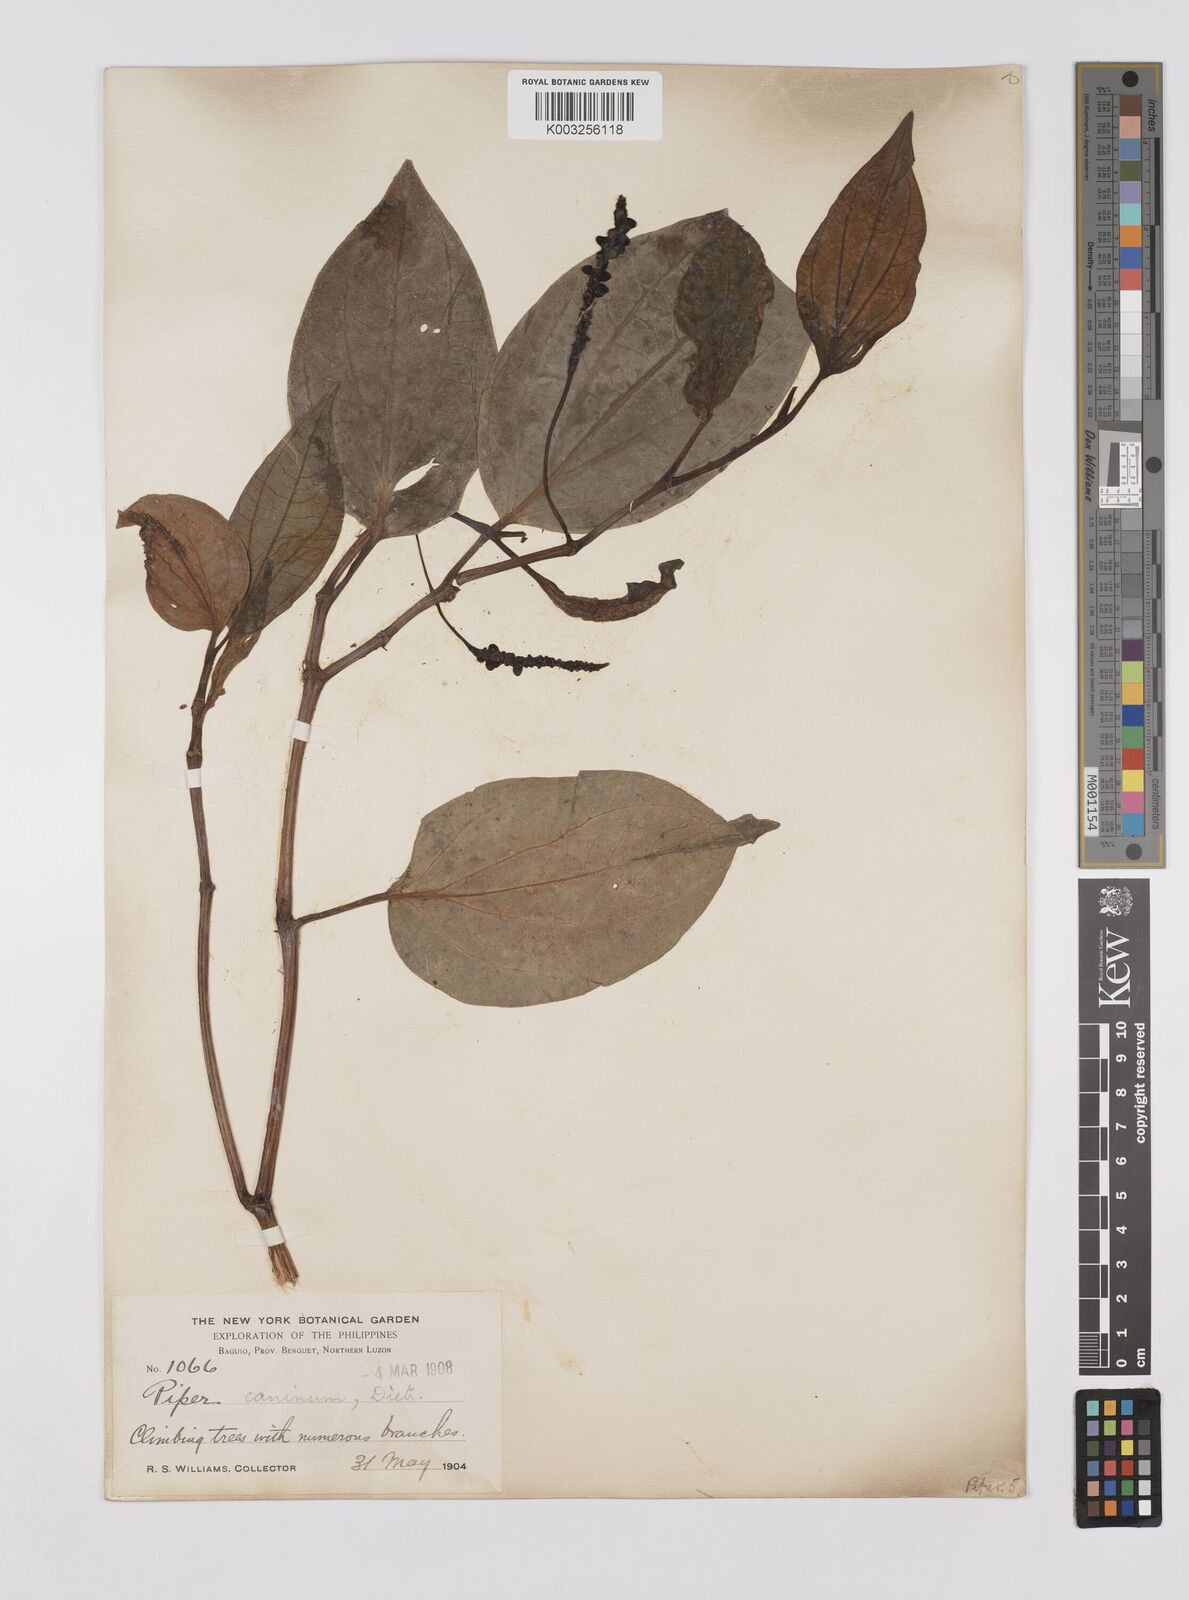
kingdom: Plantae
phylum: Tracheophyta
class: Magnoliopsida
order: Piperales
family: Piperaceae
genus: Piper
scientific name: Piper lanatum
